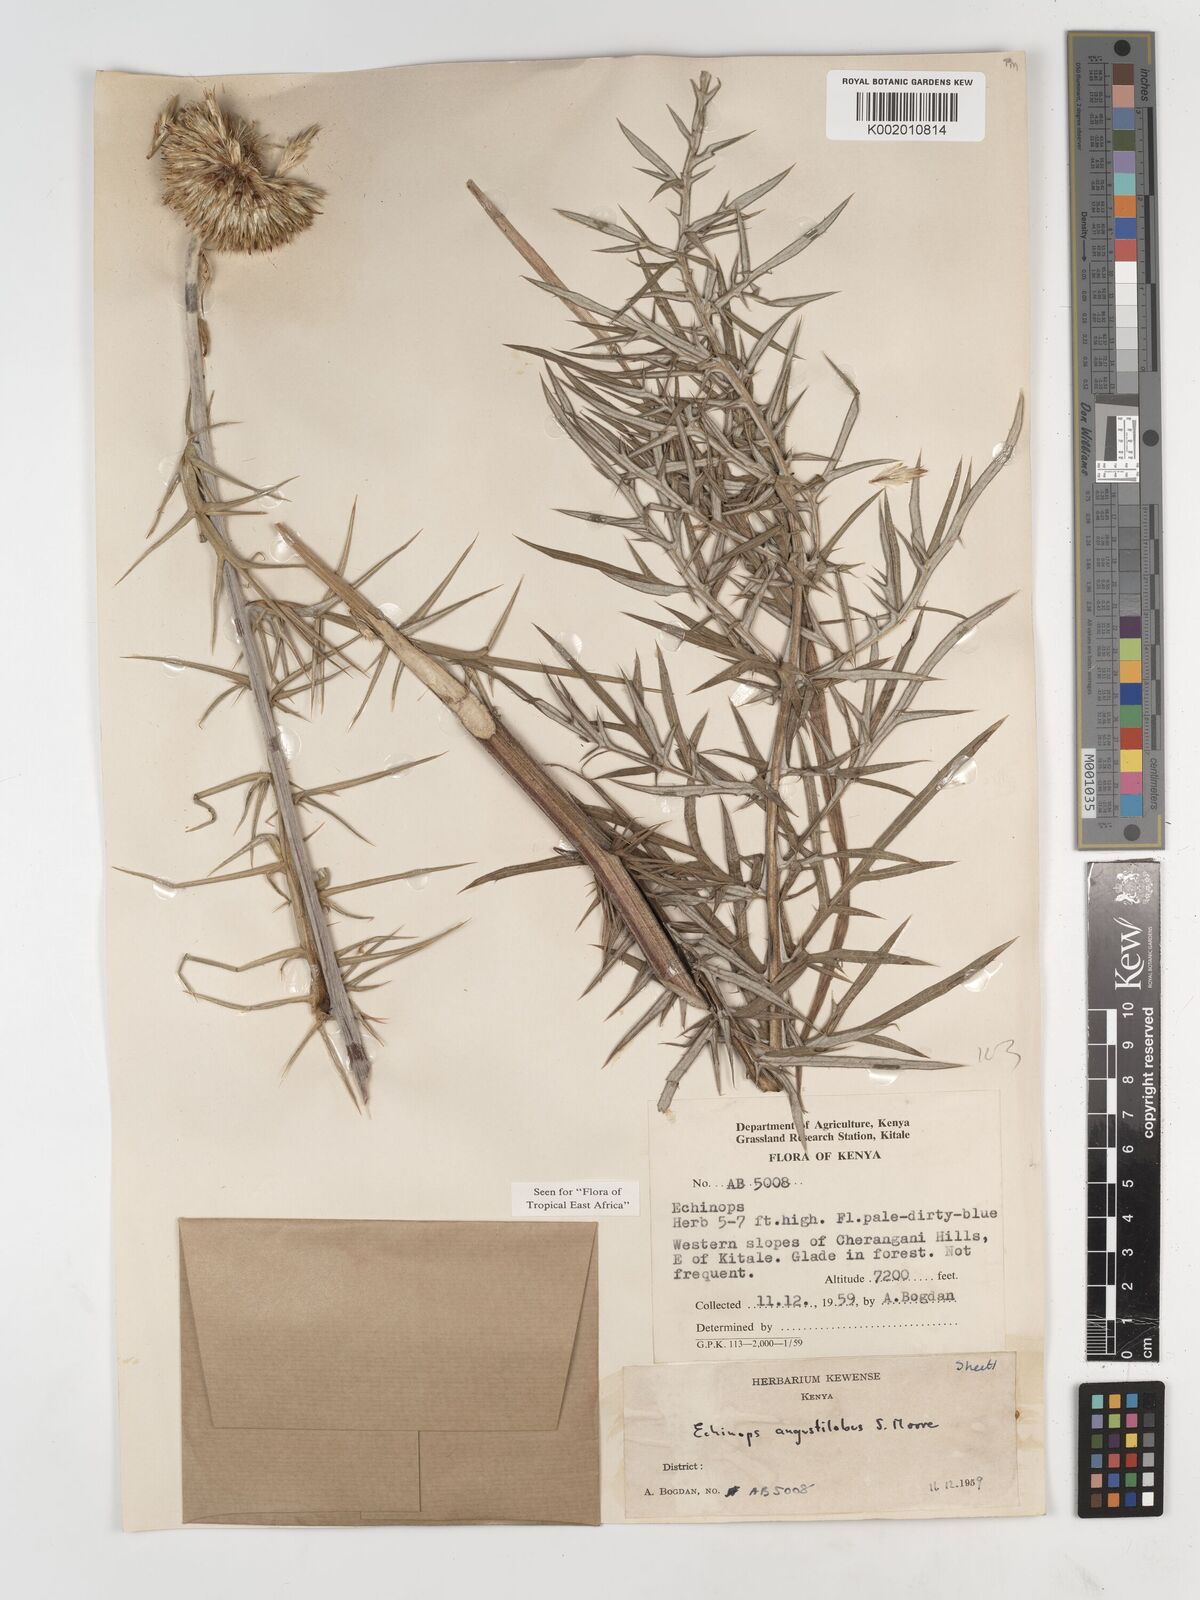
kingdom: Plantae
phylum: Tracheophyta
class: Magnoliopsida
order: Asterales
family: Asteraceae
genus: Echinops
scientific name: Echinops angustilobus
